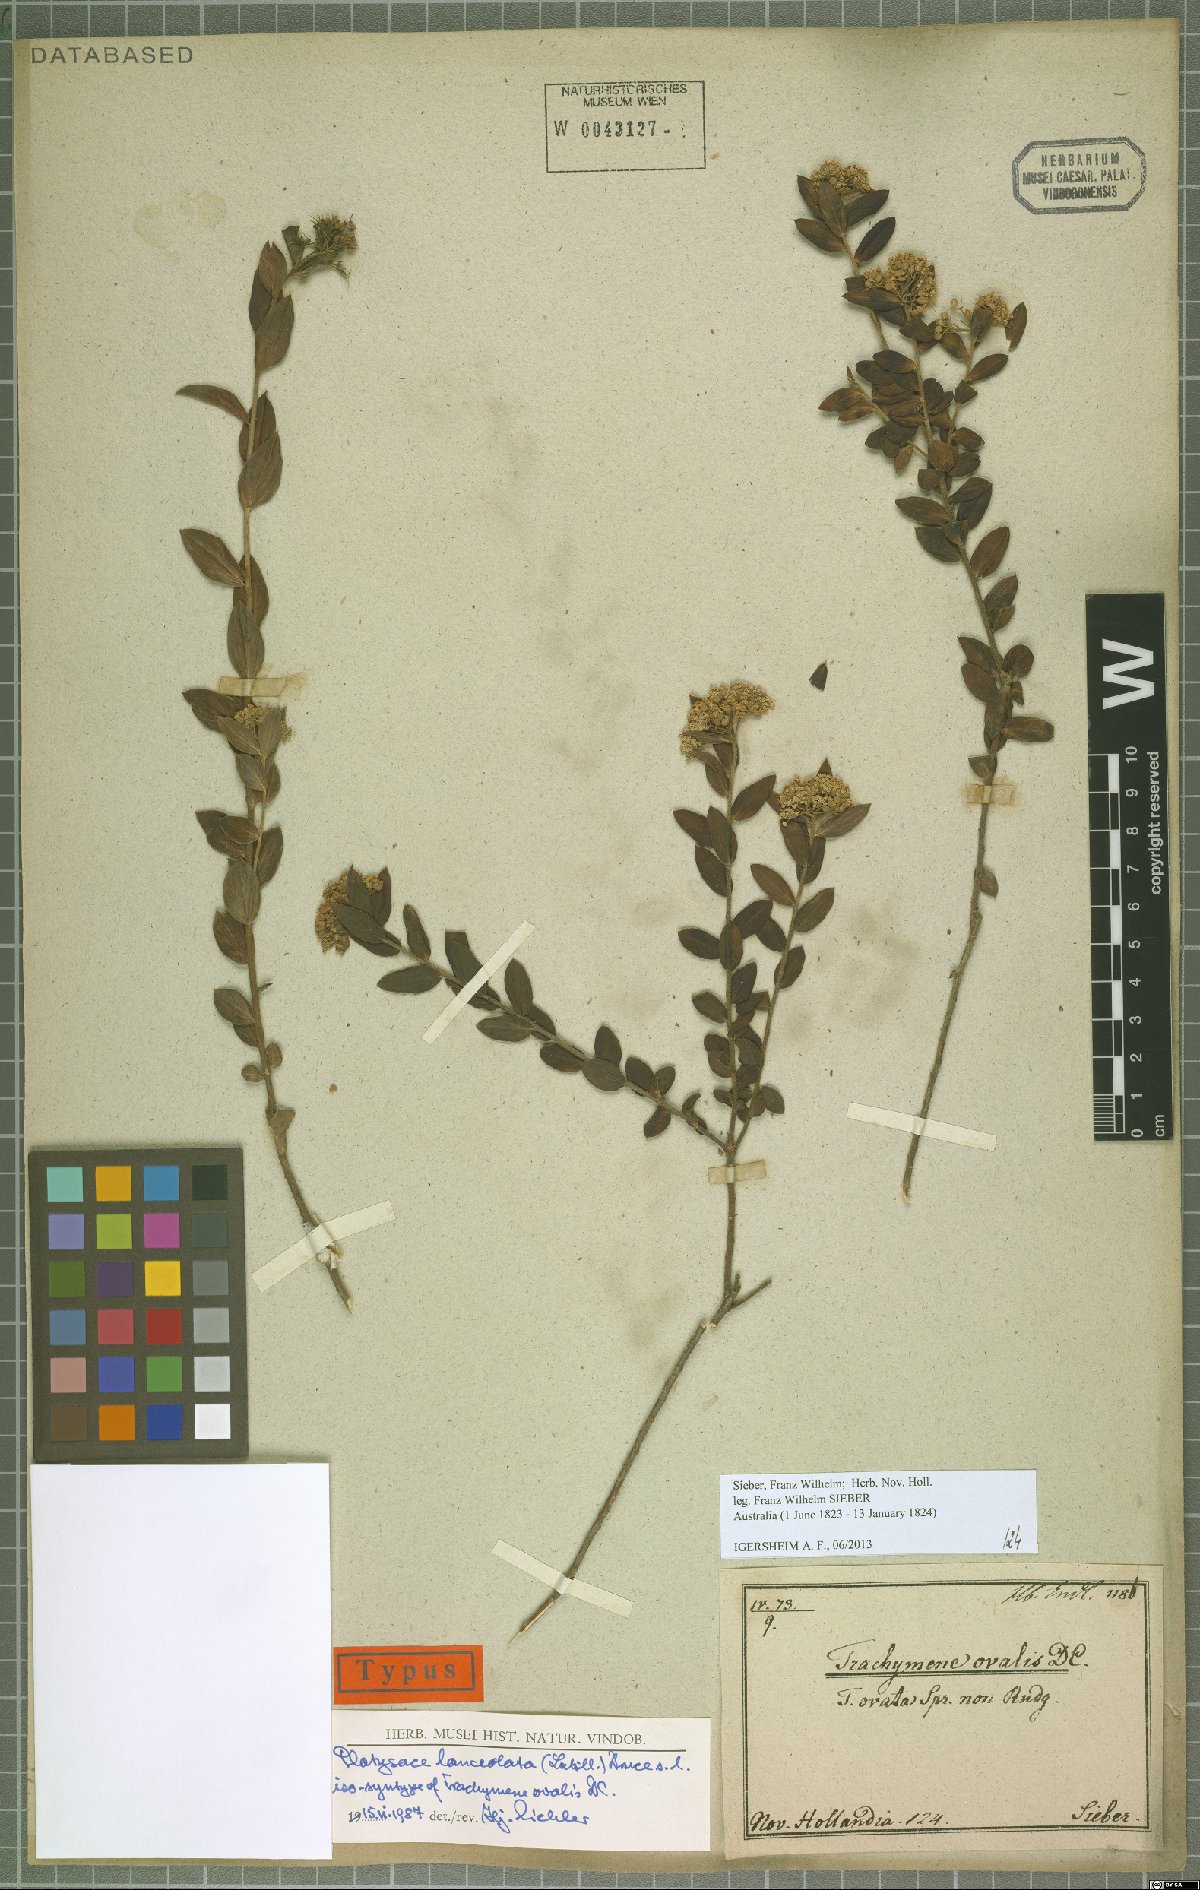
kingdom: Plantae
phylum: Tracheophyta
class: Magnoliopsida
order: Apiales
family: Apiaceae
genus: Platysace
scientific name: Platysace lanceolata
